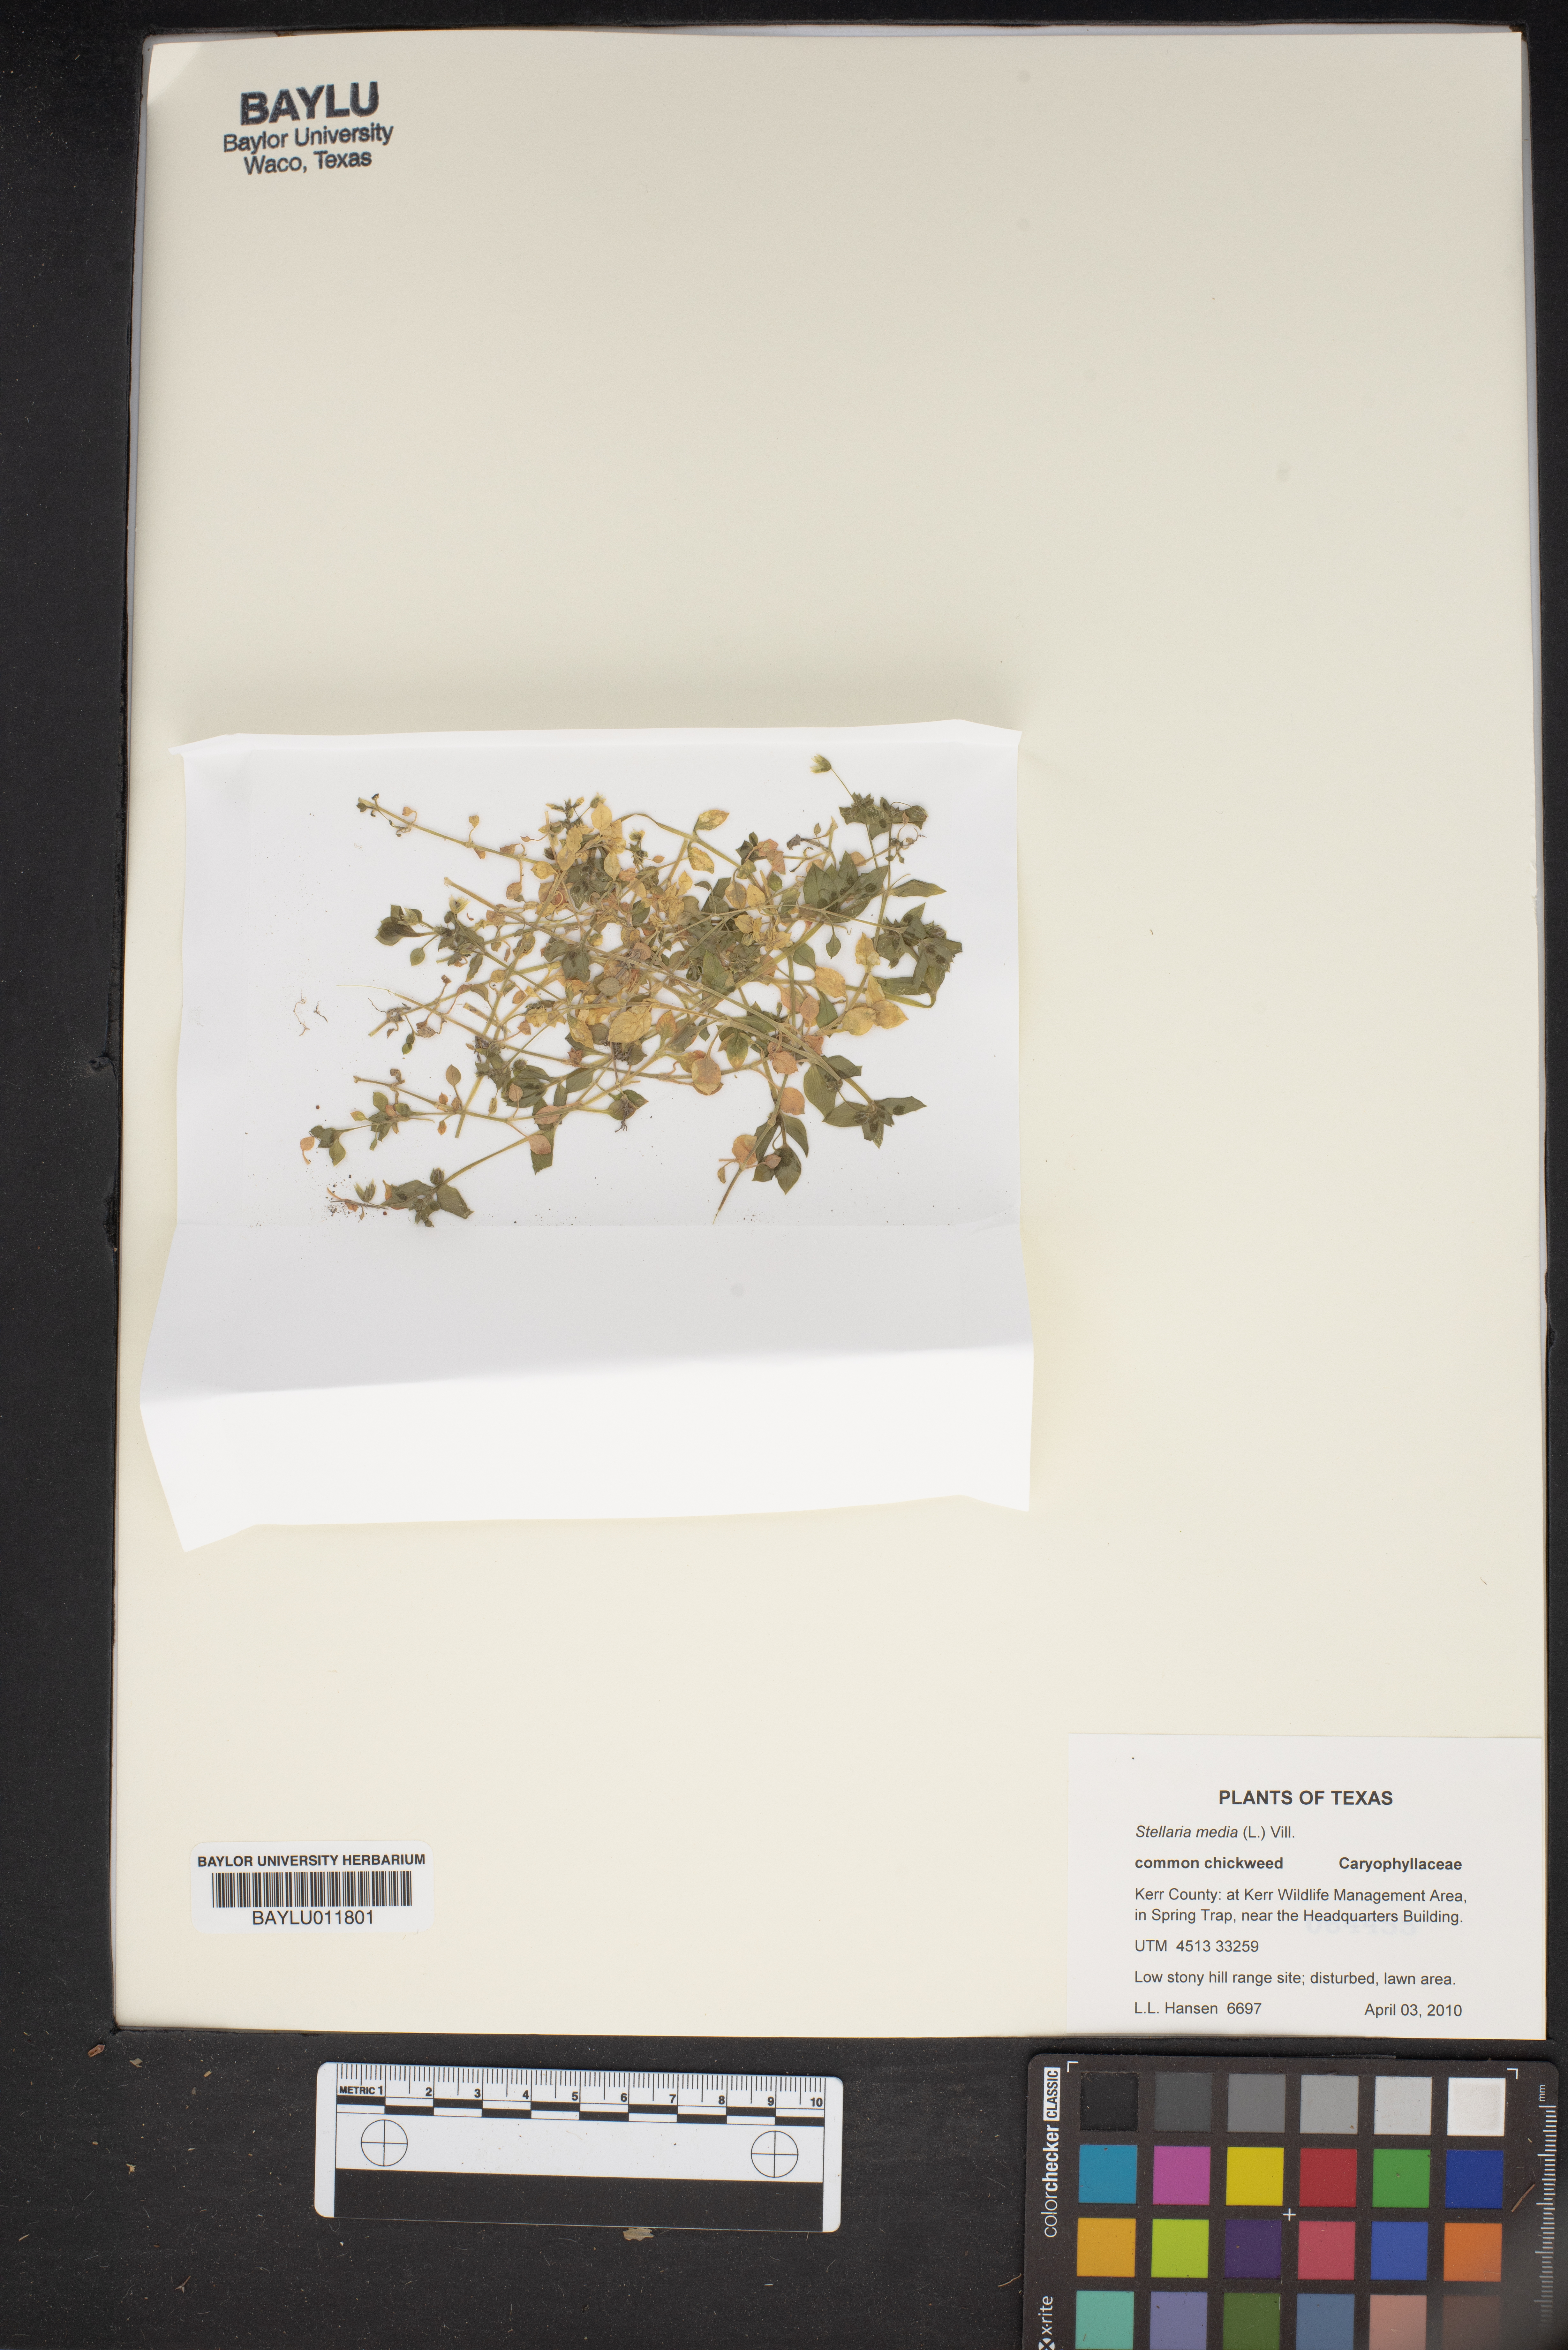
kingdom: Plantae
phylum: Tracheophyta
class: Magnoliopsida
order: Caryophyllales
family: Caryophyllaceae
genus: Stellaria
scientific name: Stellaria media
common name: Common chickweed
